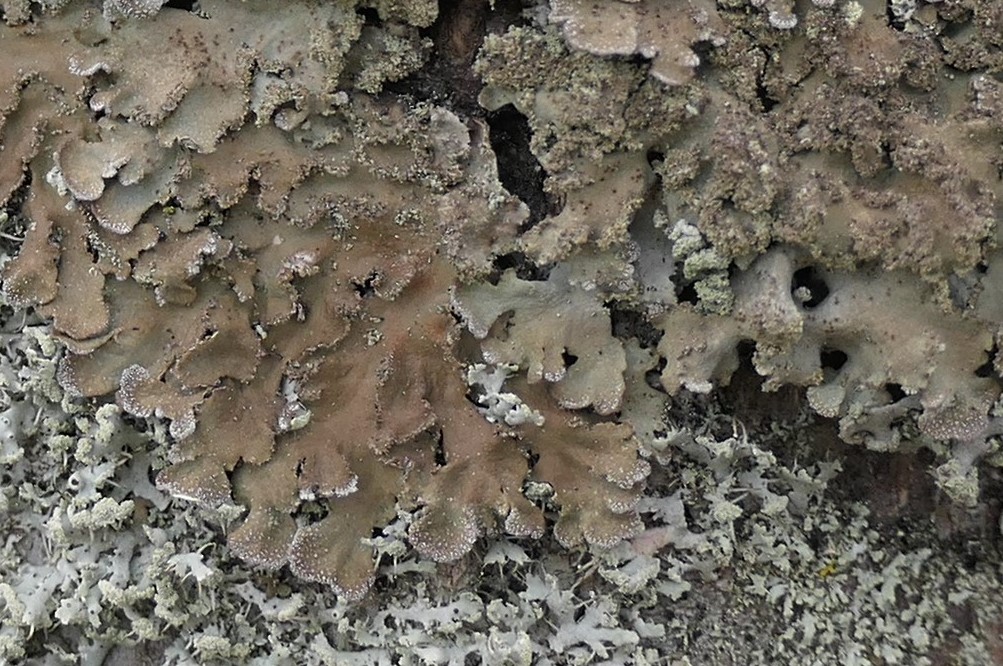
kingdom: Fungi
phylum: Ascomycota
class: Lecanoromycetes
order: Caliciales
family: Physciaceae
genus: Physconia
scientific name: Physconia enteroxantha
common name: grynet dugrosetlav
